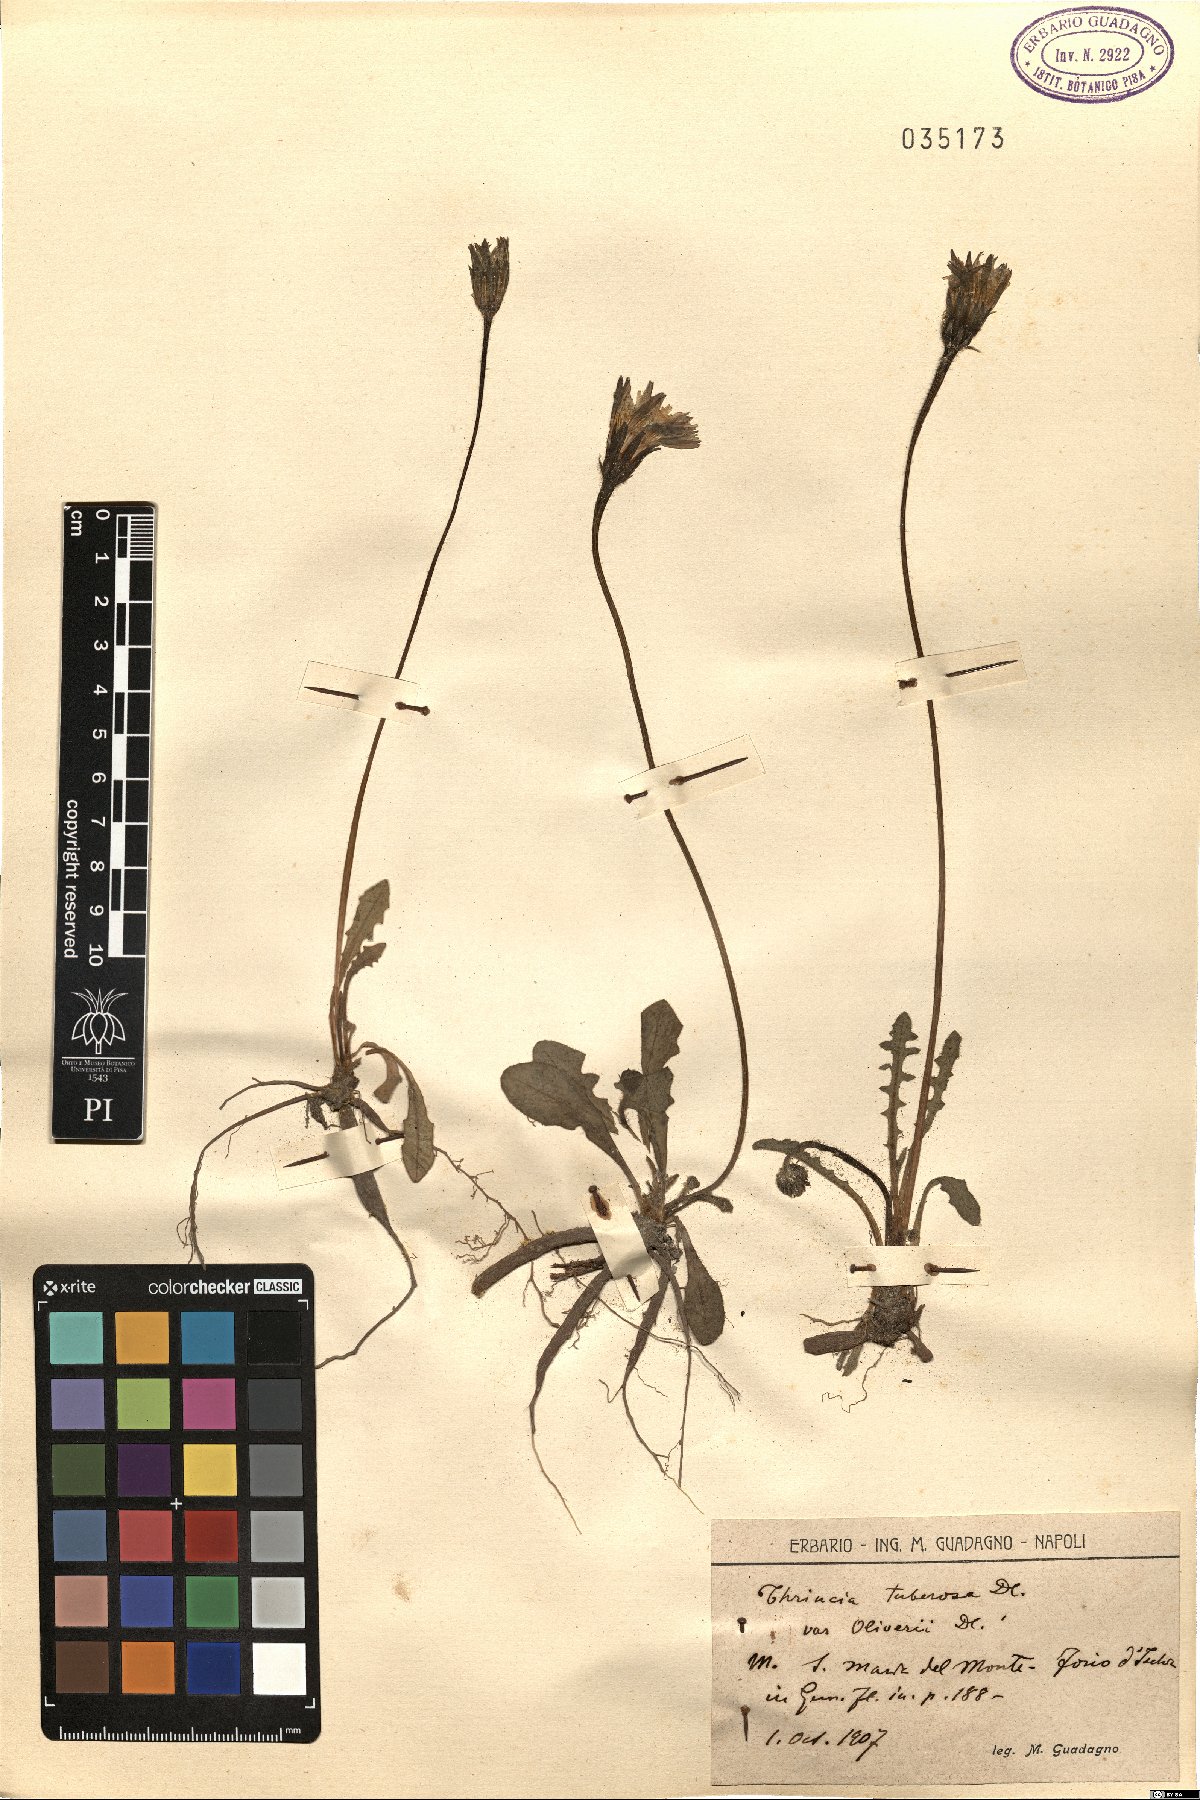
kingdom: Plantae
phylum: Tracheophyta
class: Magnoliopsida
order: Asterales
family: Asteraceae
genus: Thrincia
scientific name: Thrincia tuberosa
